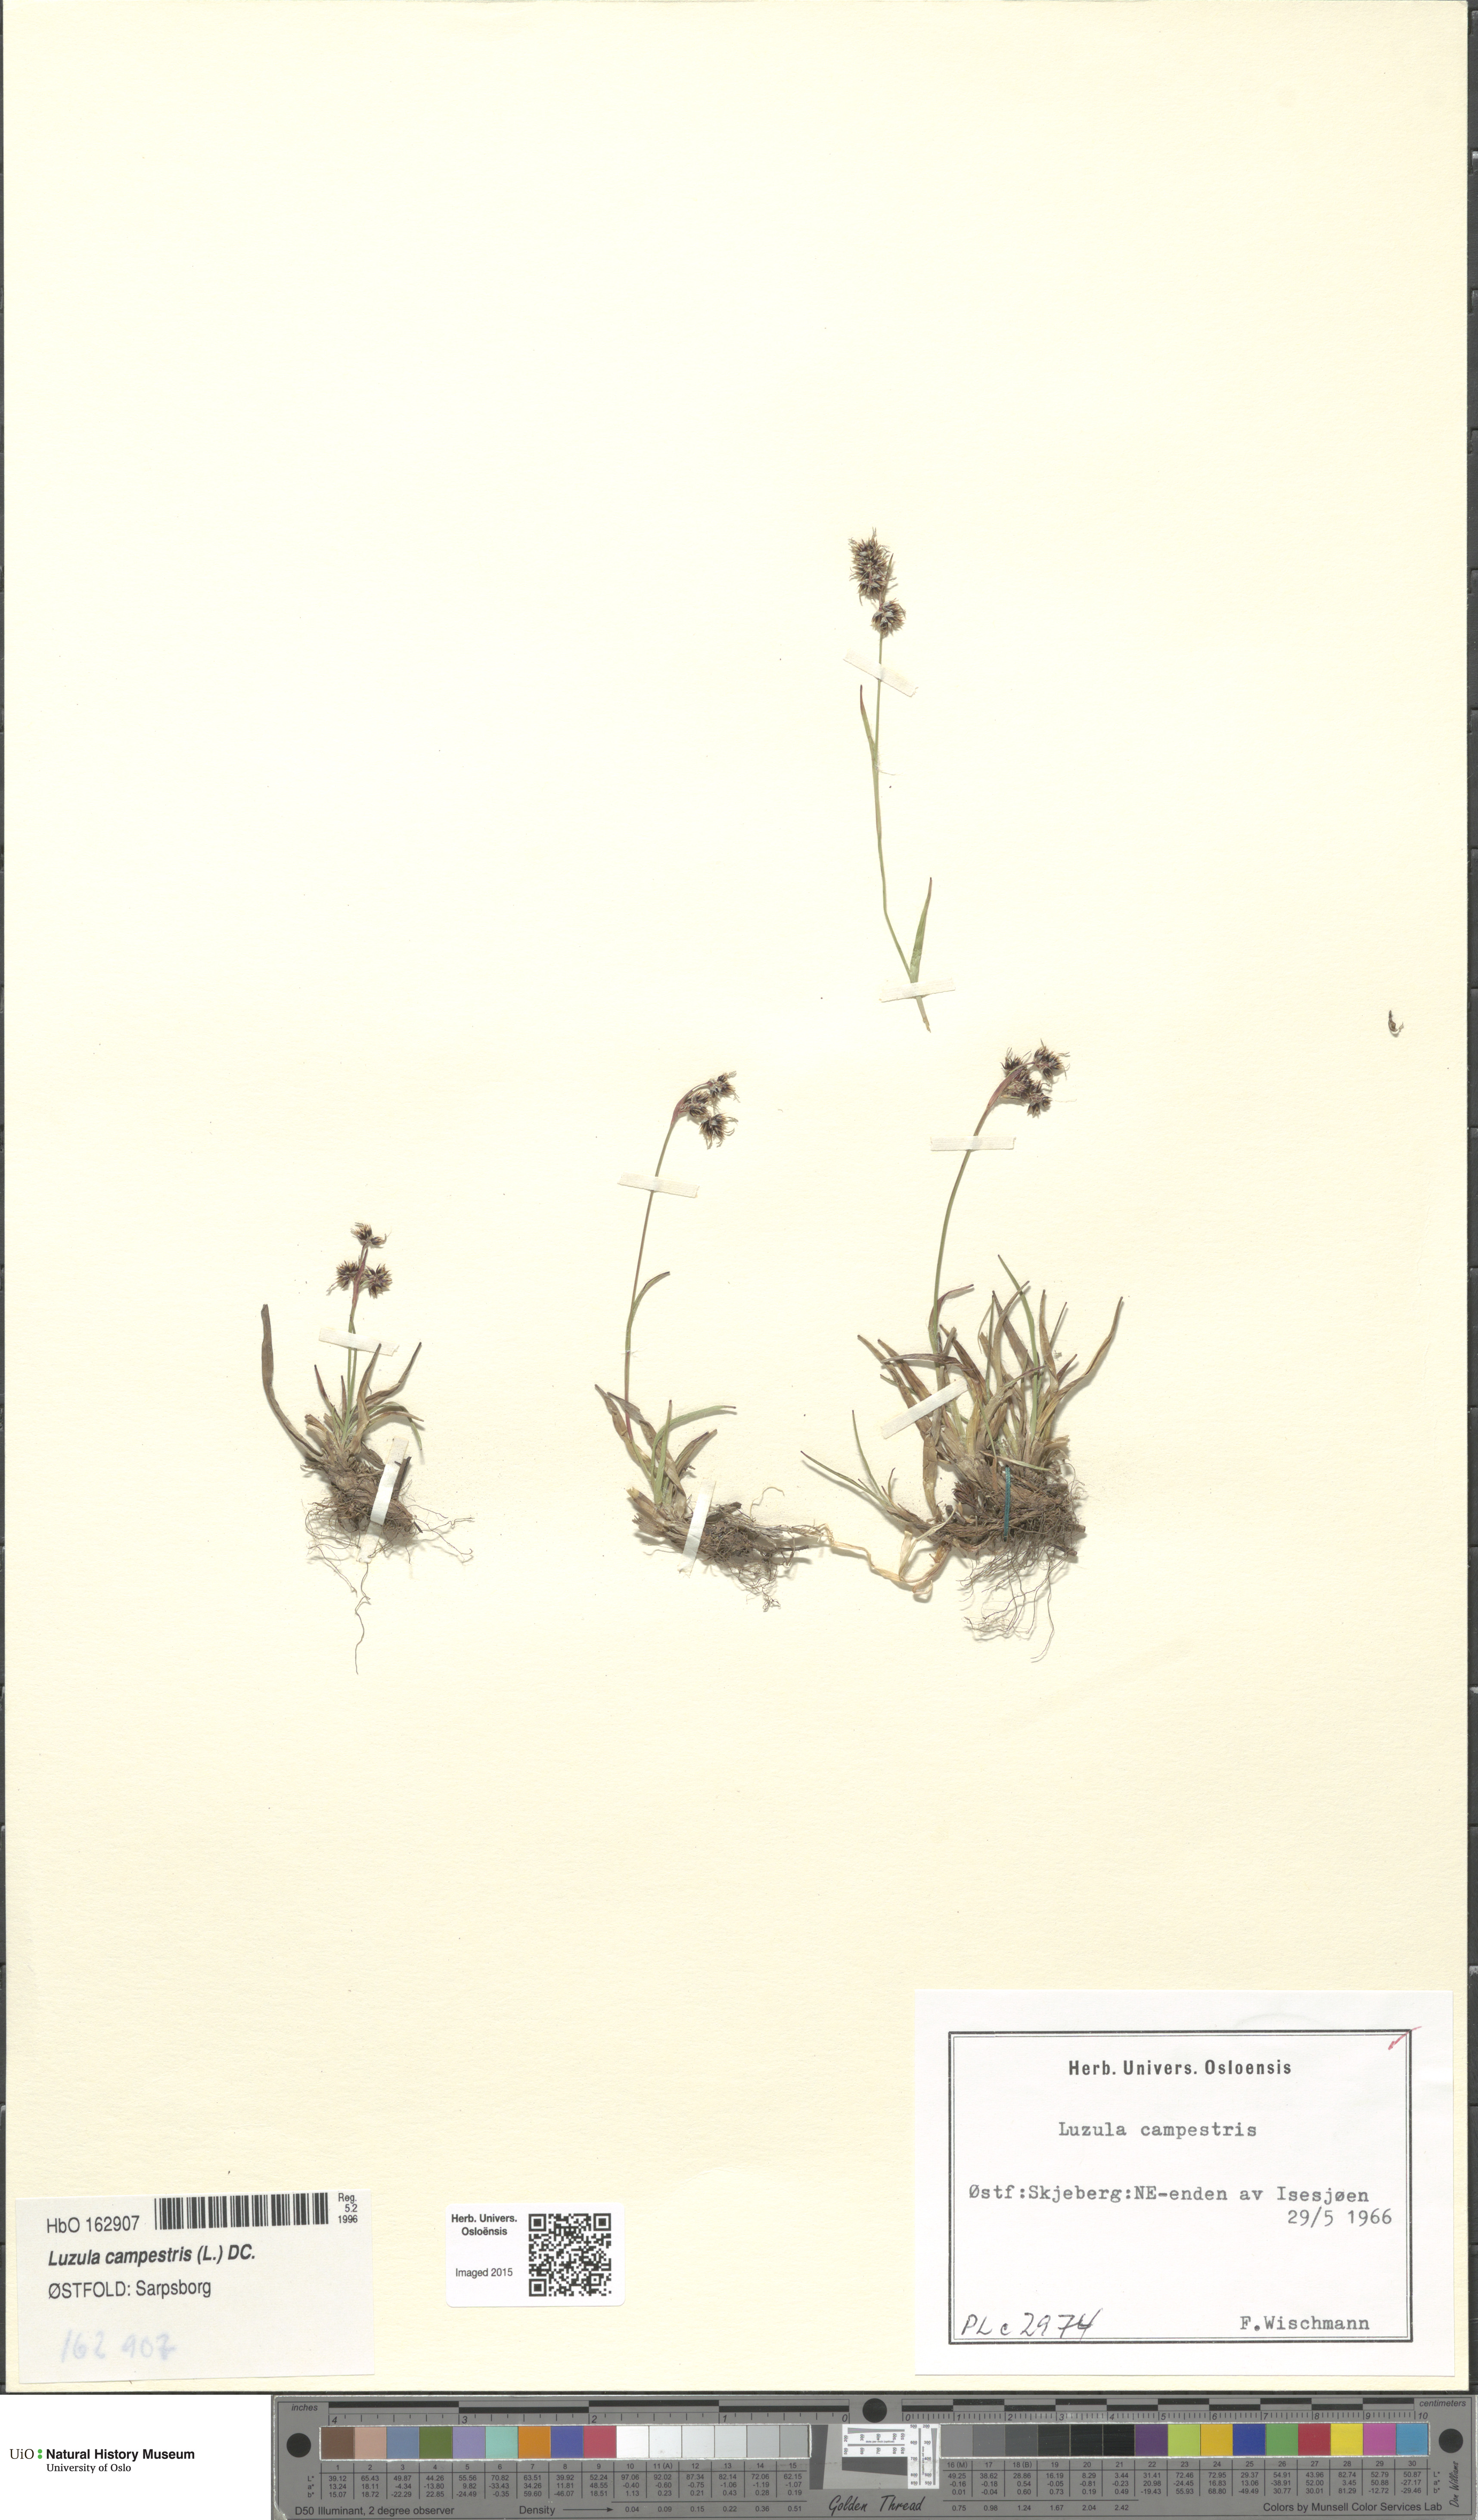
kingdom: Plantae
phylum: Tracheophyta
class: Liliopsida
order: Poales
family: Juncaceae
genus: Luzula
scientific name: Luzula campestris
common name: Field wood-rush
